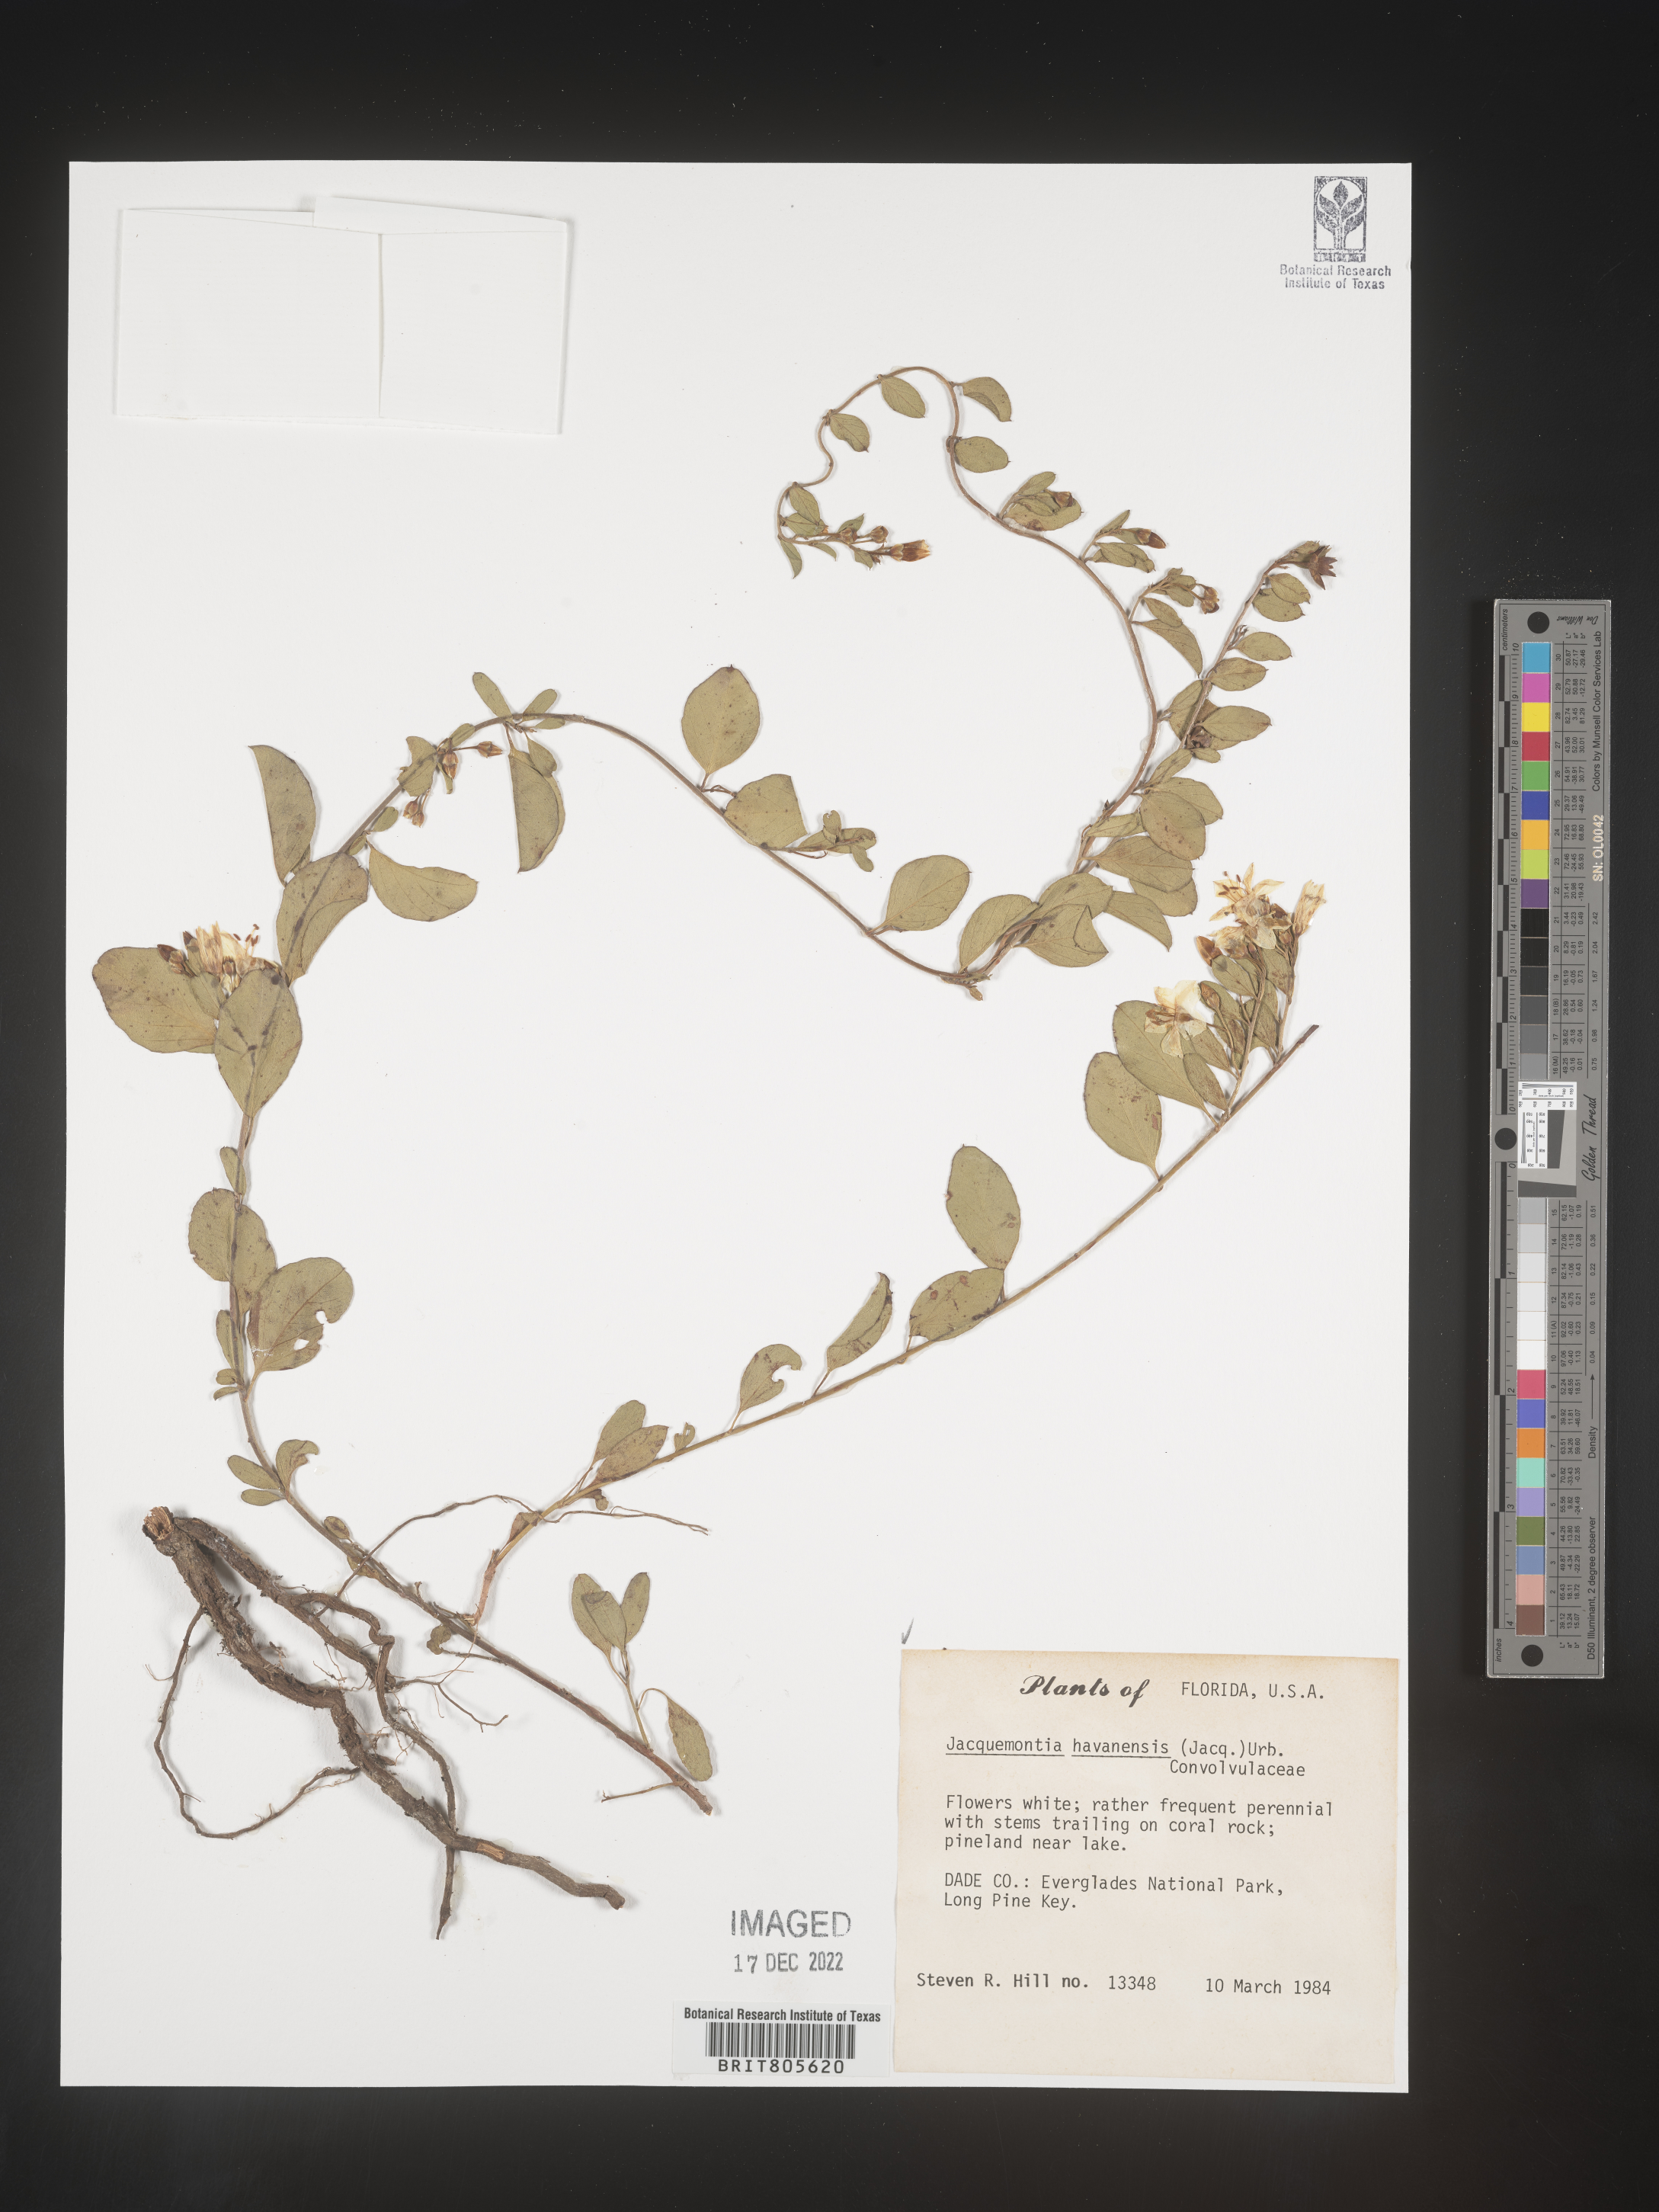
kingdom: Plantae
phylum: Tracheophyta
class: Magnoliopsida
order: Solanales
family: Convolvulaceae
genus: Jacquemontia
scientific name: Jacquemontia
